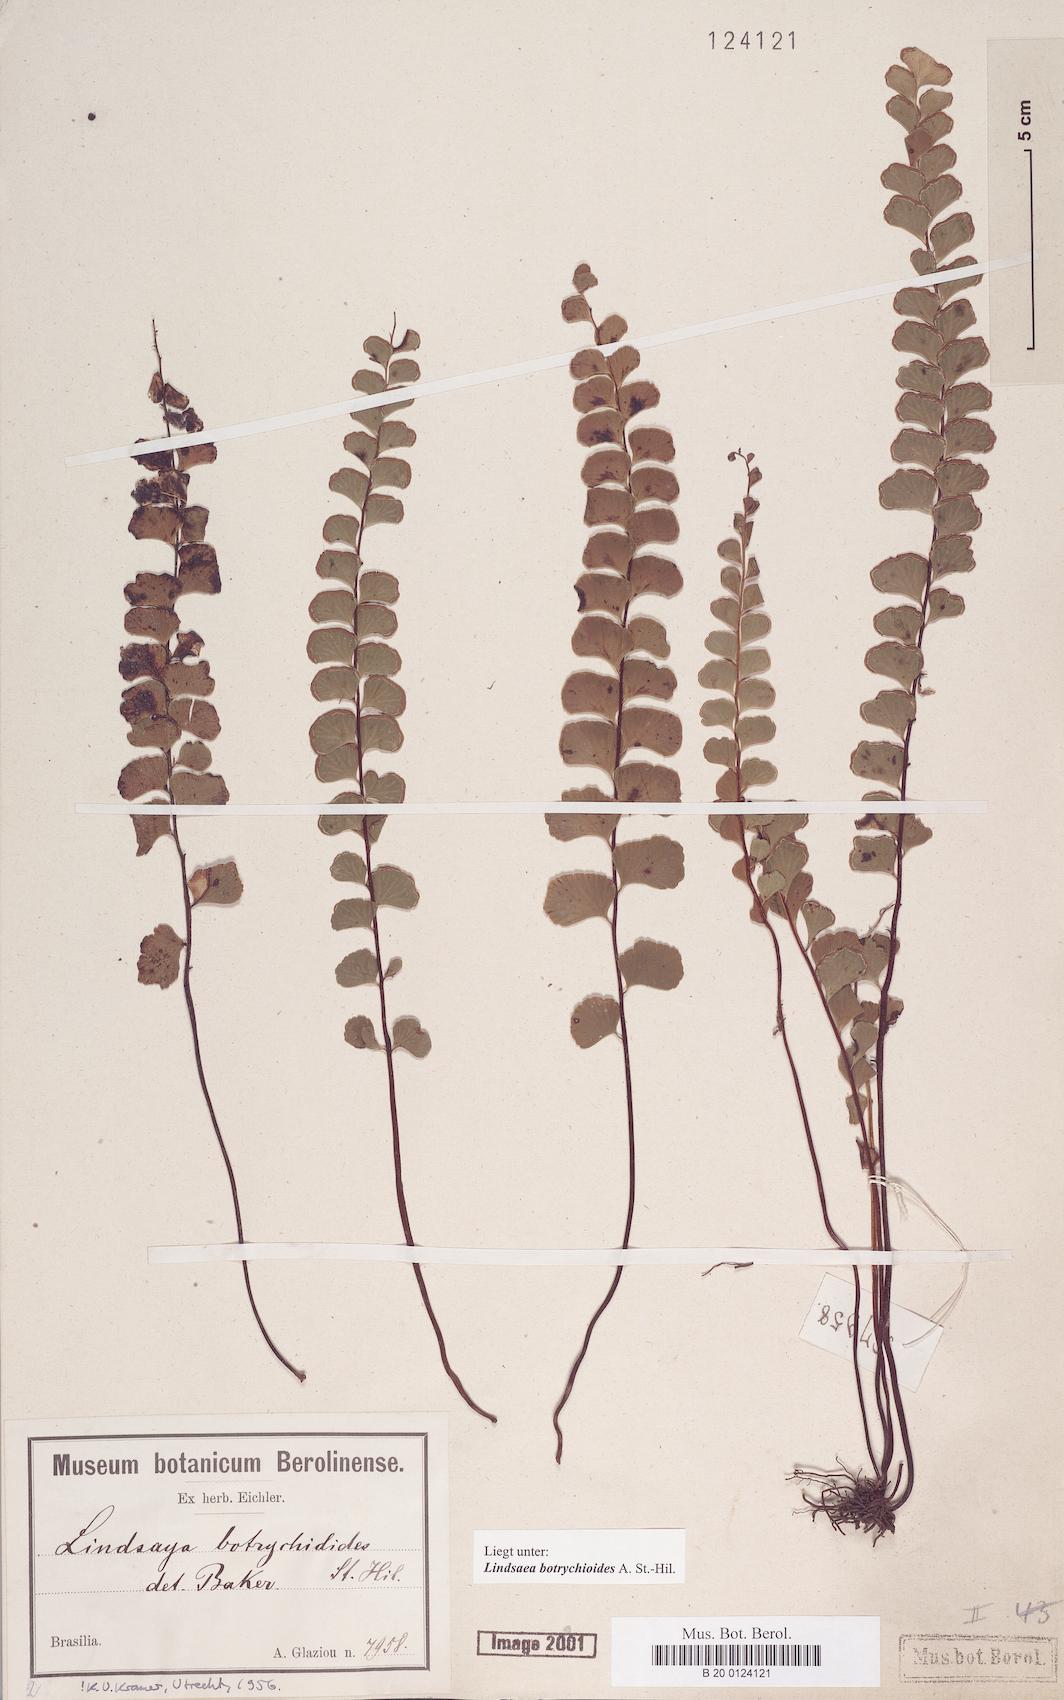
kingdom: Plantae
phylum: Tracheophyta
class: Polypodiopsida
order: Polypodiales
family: Lindsaeaceae
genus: Lindsaea
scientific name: Lindsaea botrychioides
